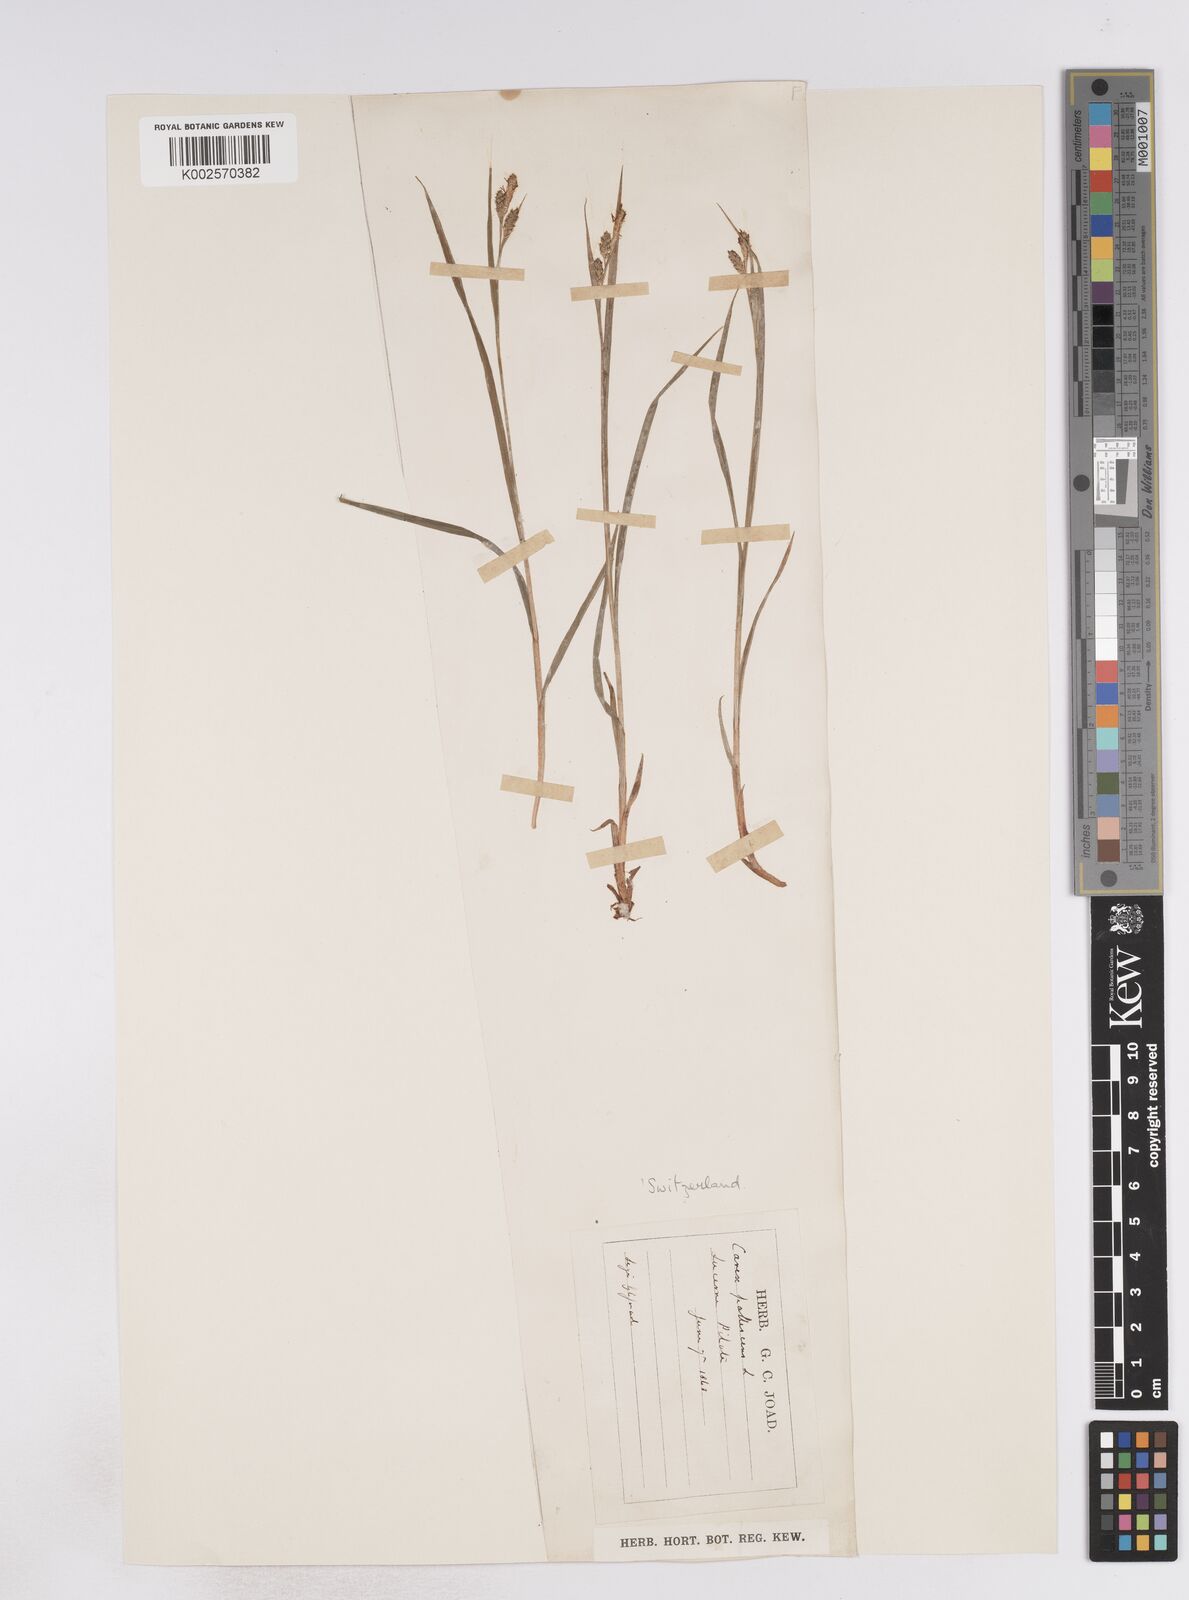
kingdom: Plantae
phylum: Tracheophyta
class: Liliopsida
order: Poales
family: Cyperaceae
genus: Carex
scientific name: Carex pallescens
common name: Pale sedge
